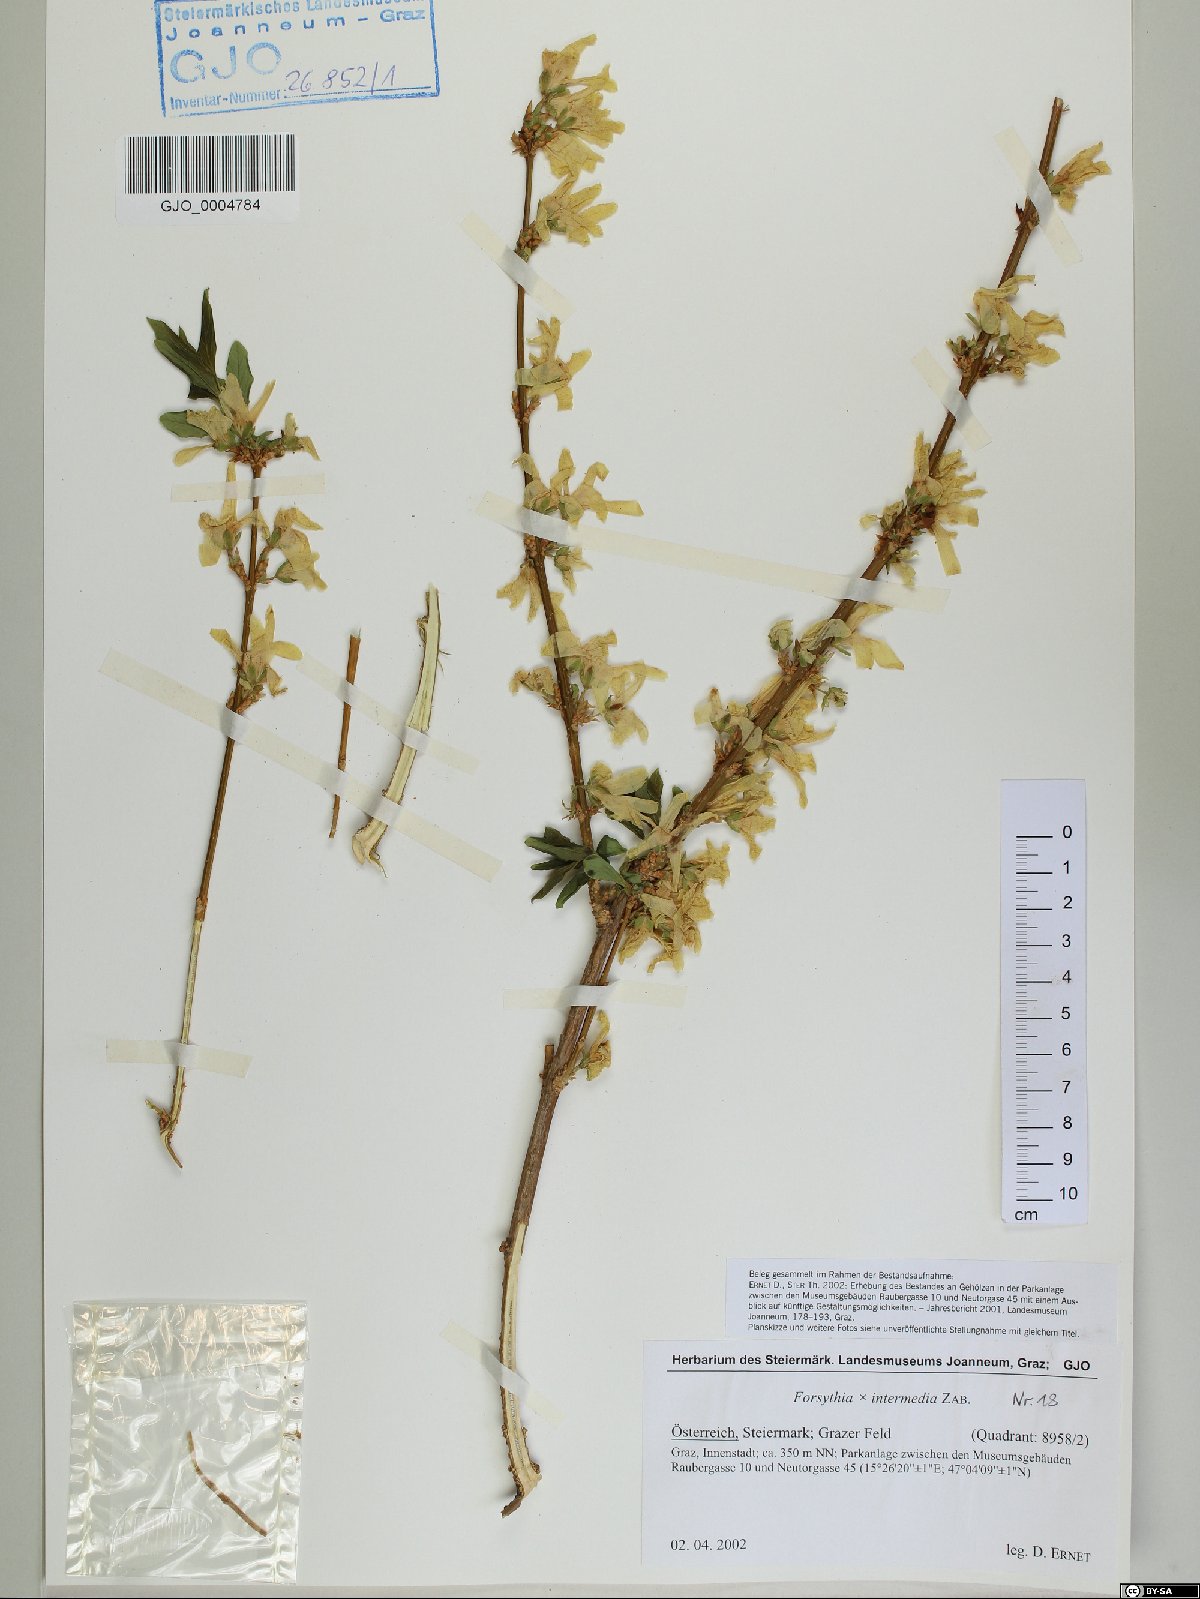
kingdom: Plantae
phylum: Tracheophyta
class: Magnoliopsida
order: Lamiales
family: Oleaceae
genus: Forsythia
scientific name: Forsythia intermedia
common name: Forsythia
